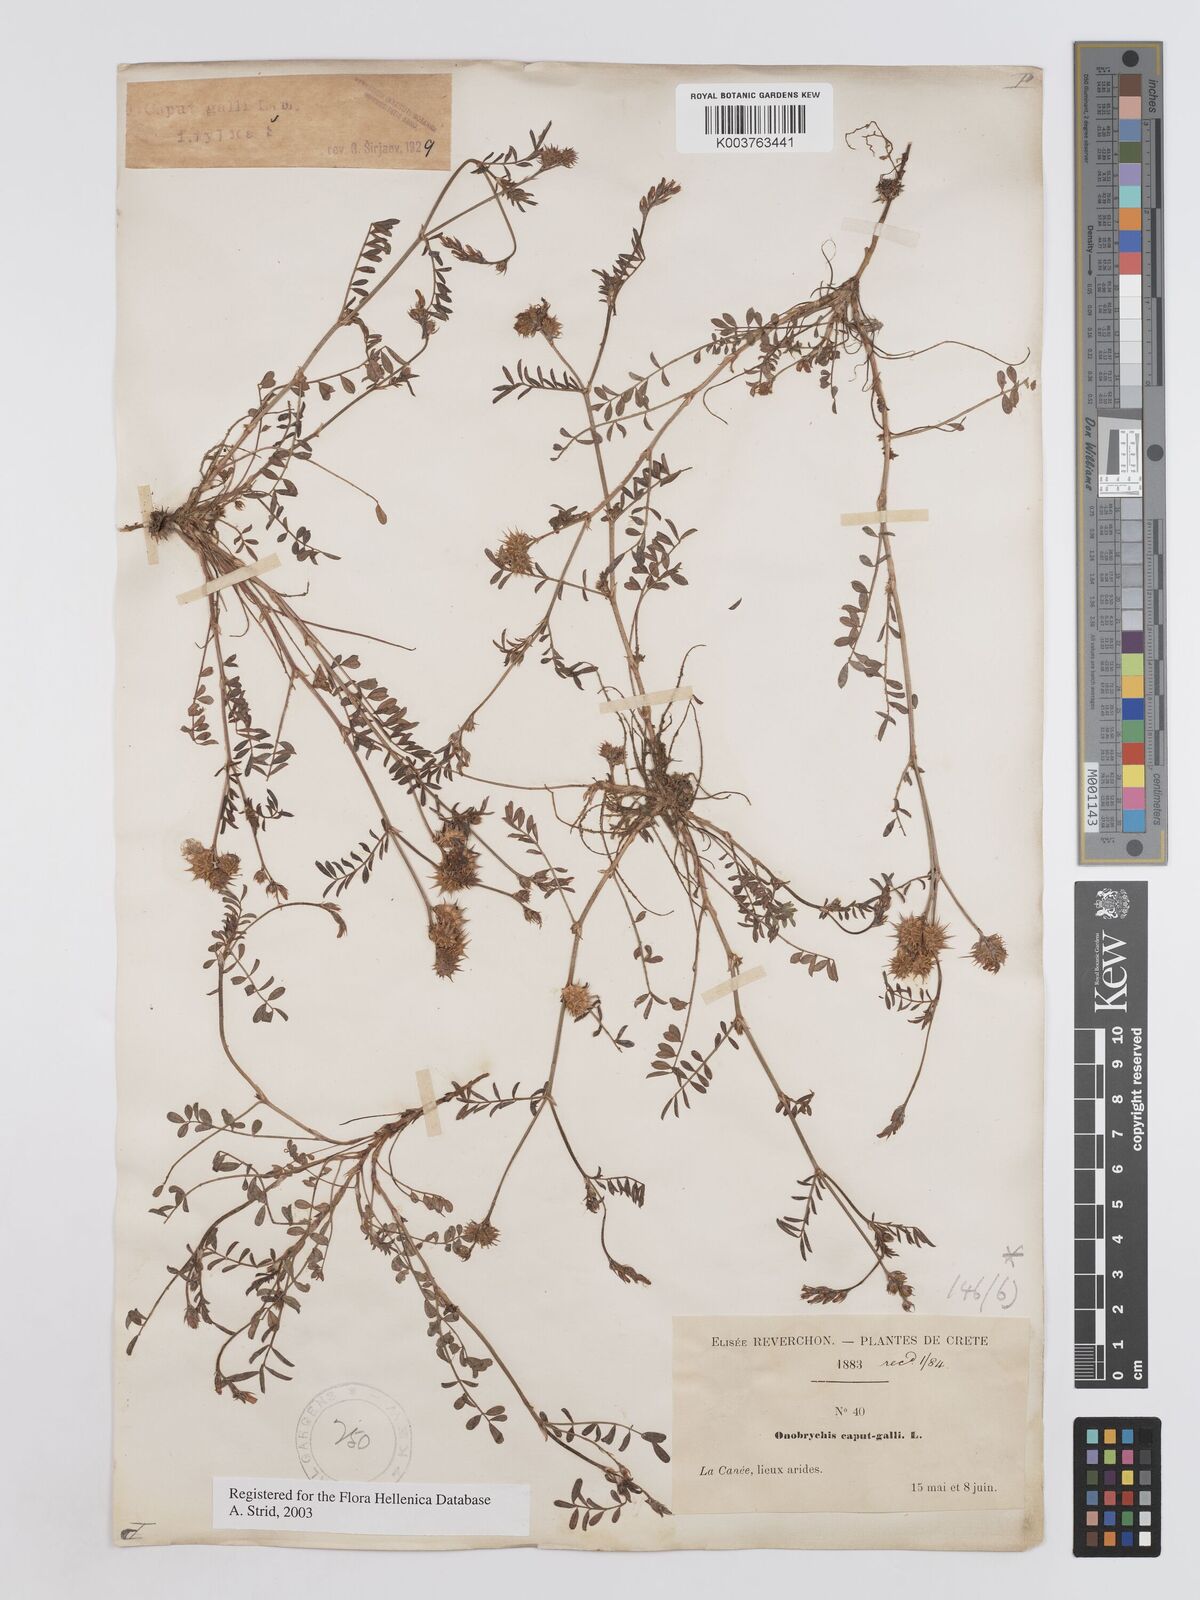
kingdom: Plantae
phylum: Tracheophyta
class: Magnoliopsida
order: Fabales
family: Fabaceae
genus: Onobrychis
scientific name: Onobrychis caput-galli
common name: Cockscomb sainfoin
